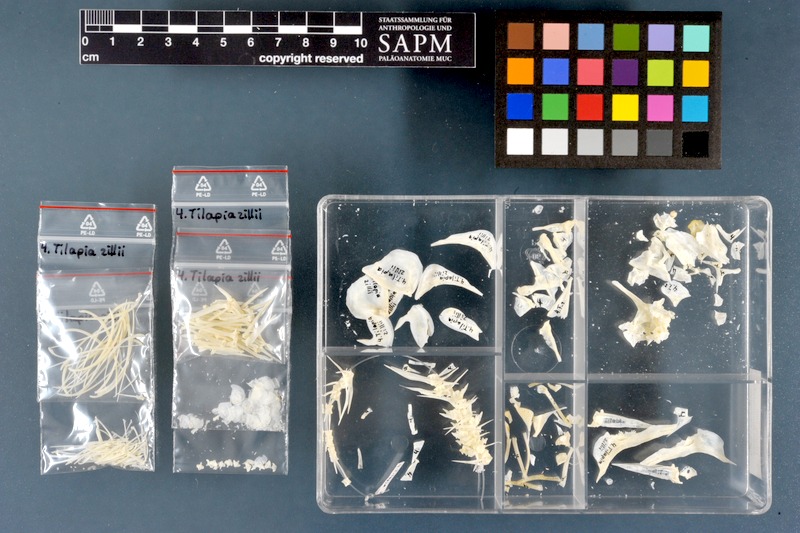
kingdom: Animalia
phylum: Chordata
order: Perciformes
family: Cichlidae
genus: Coptodon
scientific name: Coptodon zillii
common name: Redbelly tilapia
